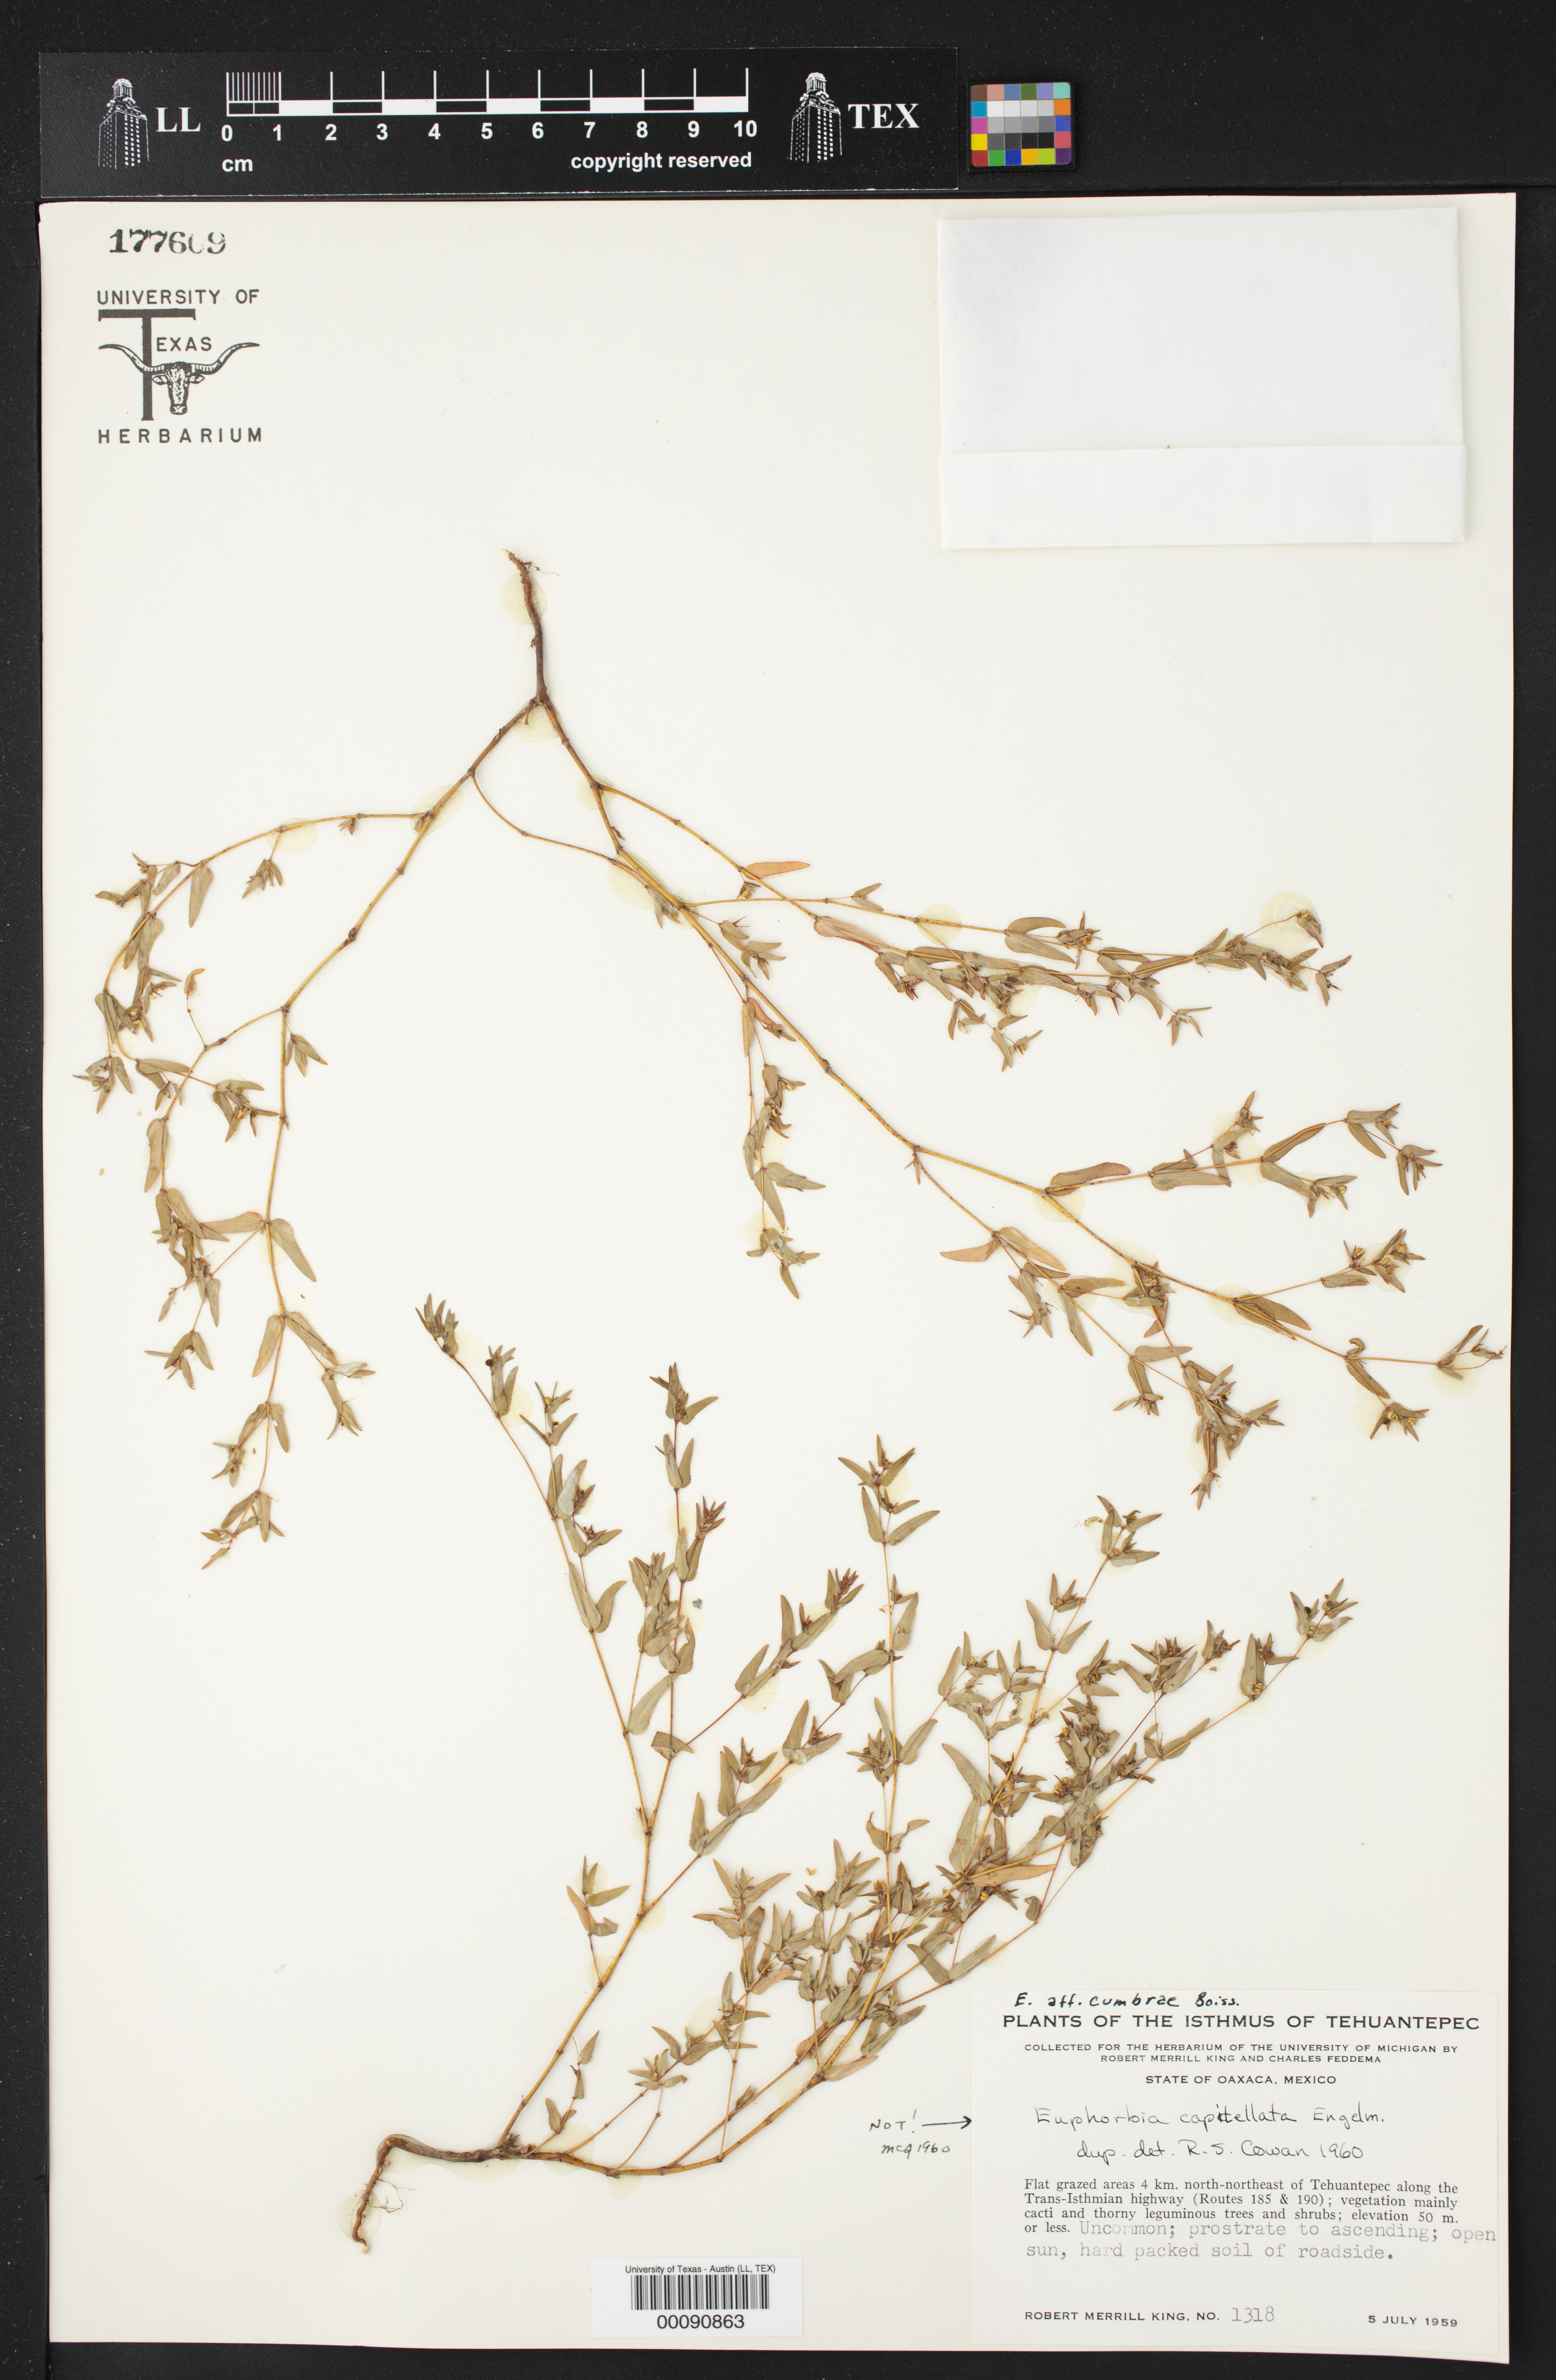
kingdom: Plantae
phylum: Tracheophyta
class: Magnoliopsida
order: Malpighiales
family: Euphorbiaceae
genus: Euphorbia
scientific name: Euphorbia hyssopifolia
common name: Hyssopleaf sandmat
